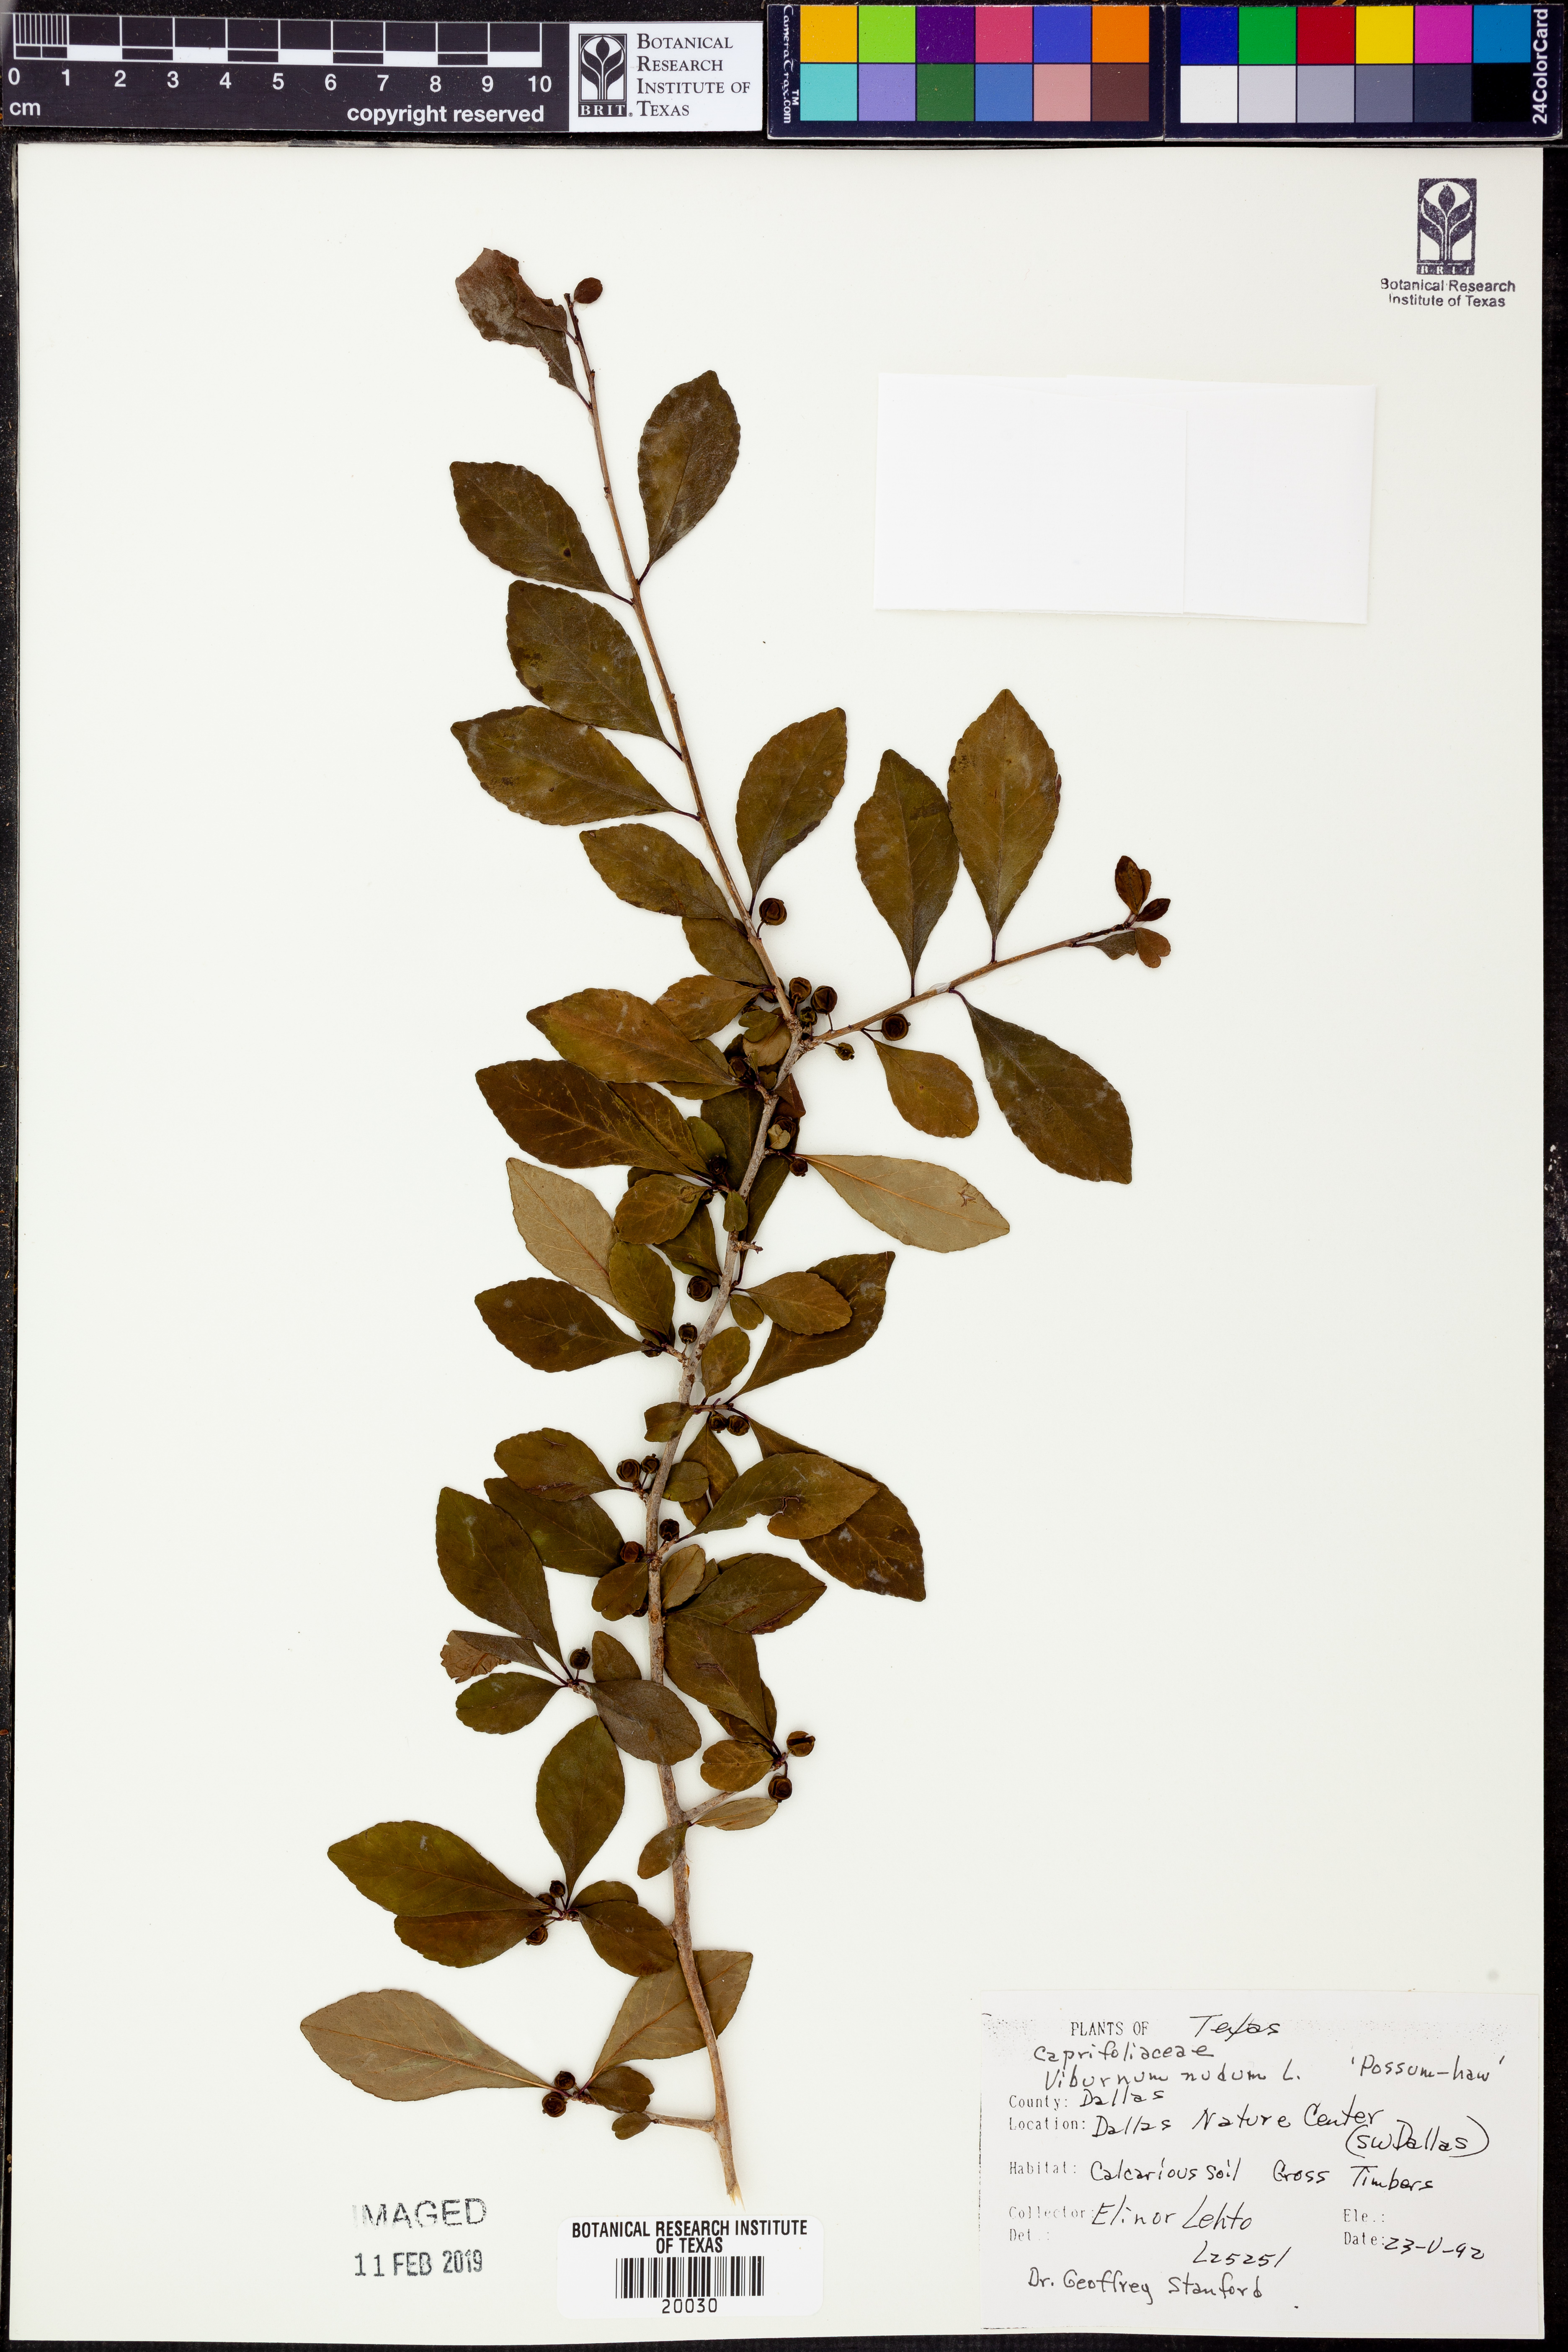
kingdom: Plantae
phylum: Tracheophyta
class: Magnoliopsida
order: Dipsacales
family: Viburnaceae
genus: Viburnum
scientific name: Viburnum nudum
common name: Possum haw
